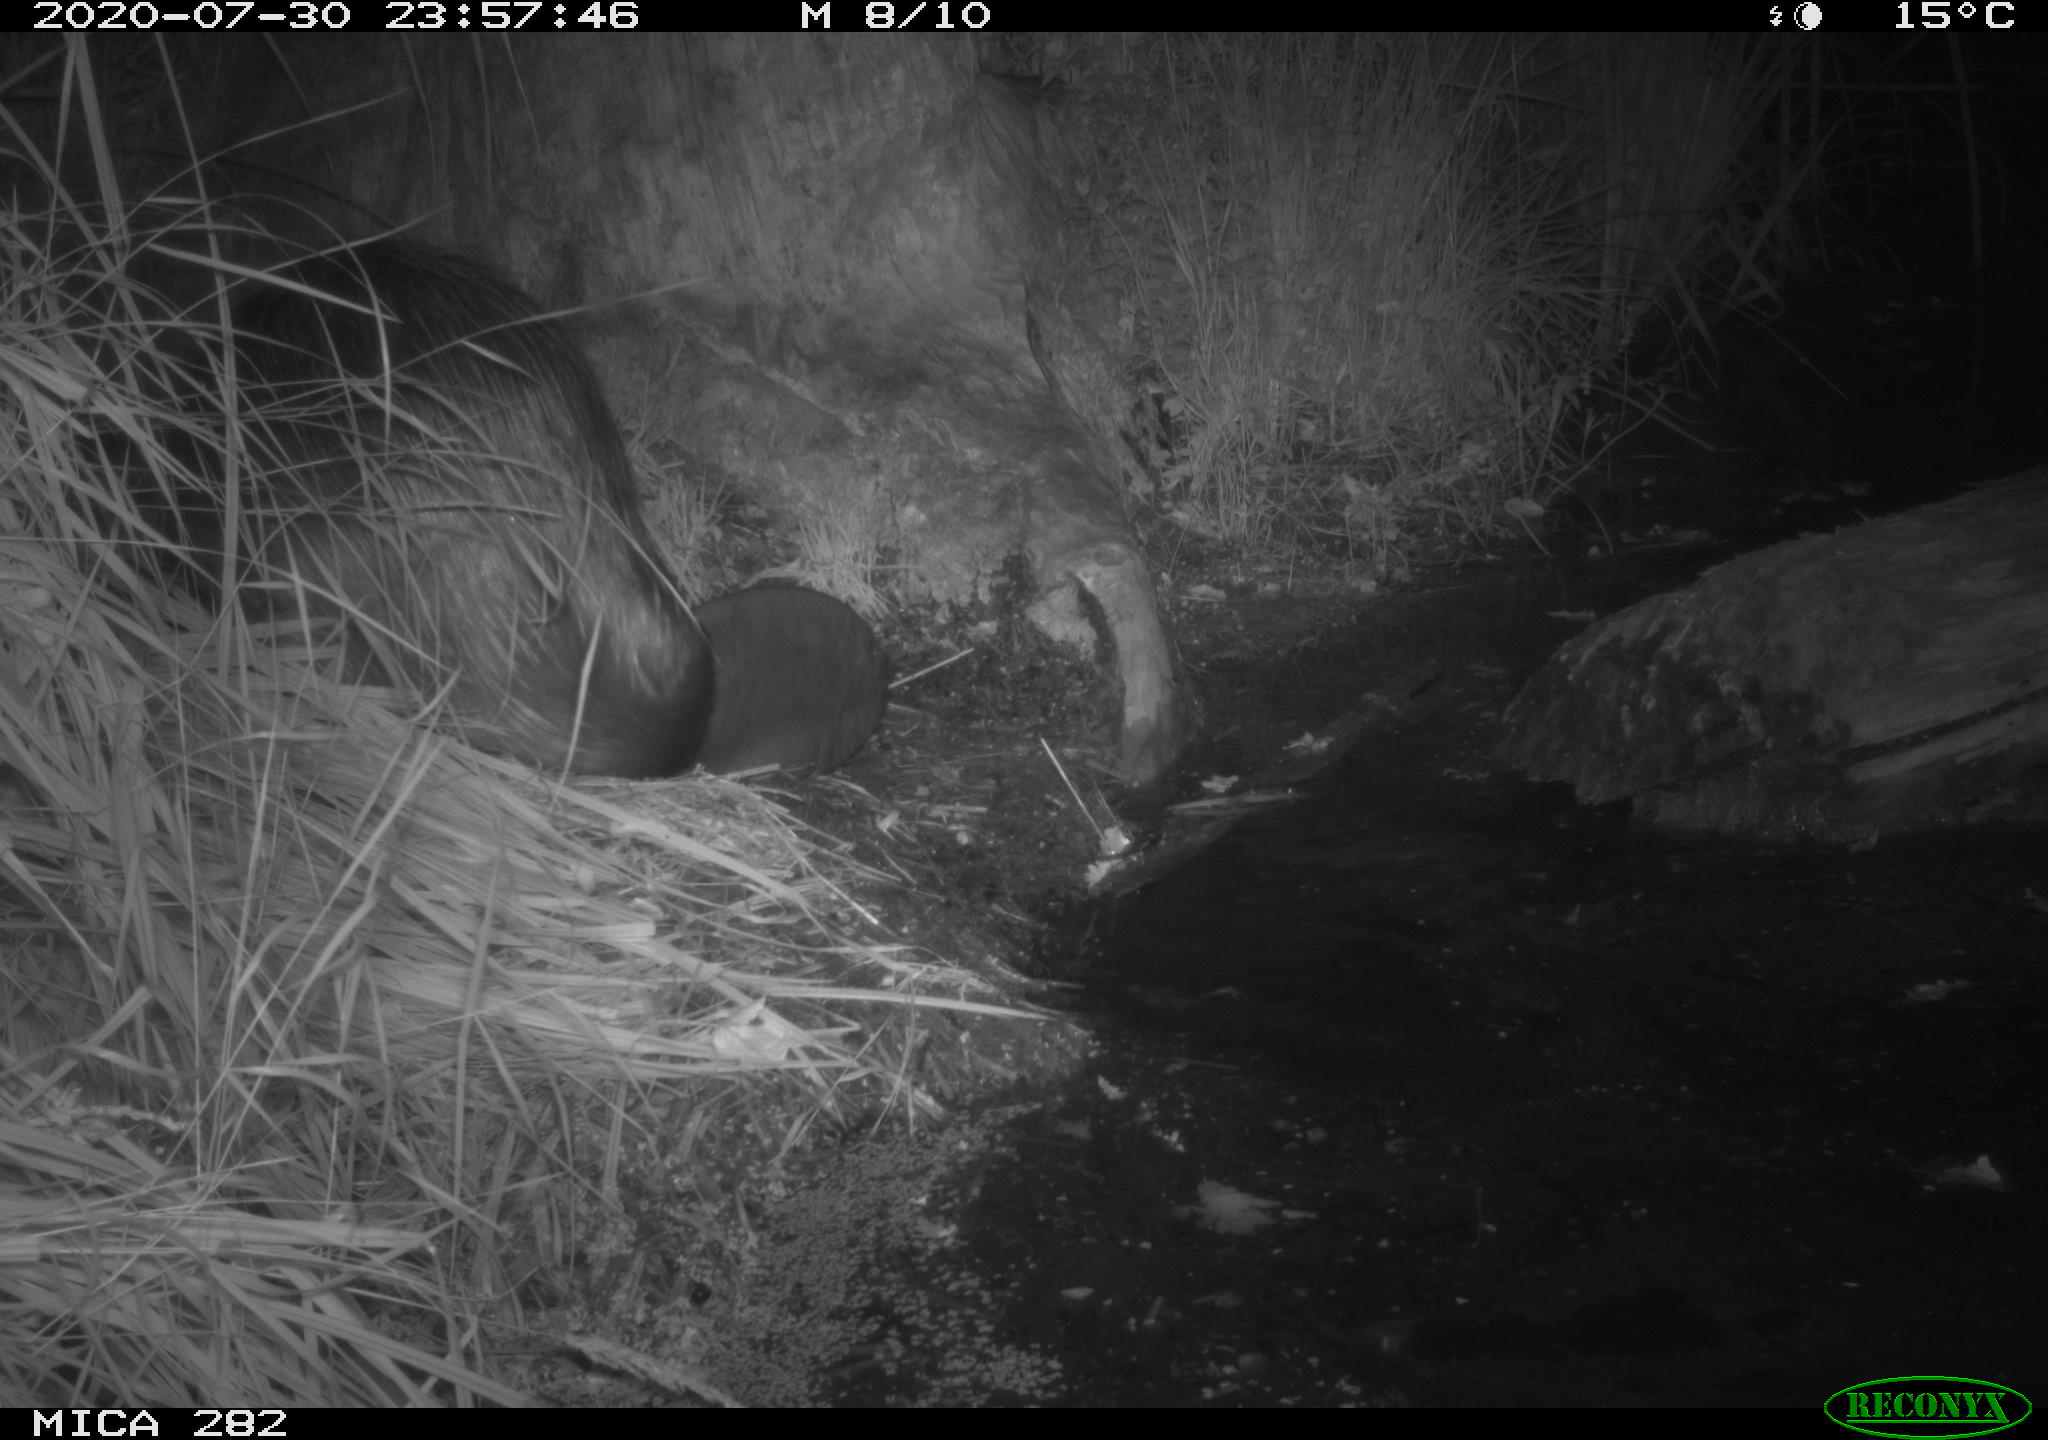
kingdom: Animalia
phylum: Chordata
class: Mammalia
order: Rodentia
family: Castoridae
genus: Castor
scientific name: Castor fiber
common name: Eurasian beaver
